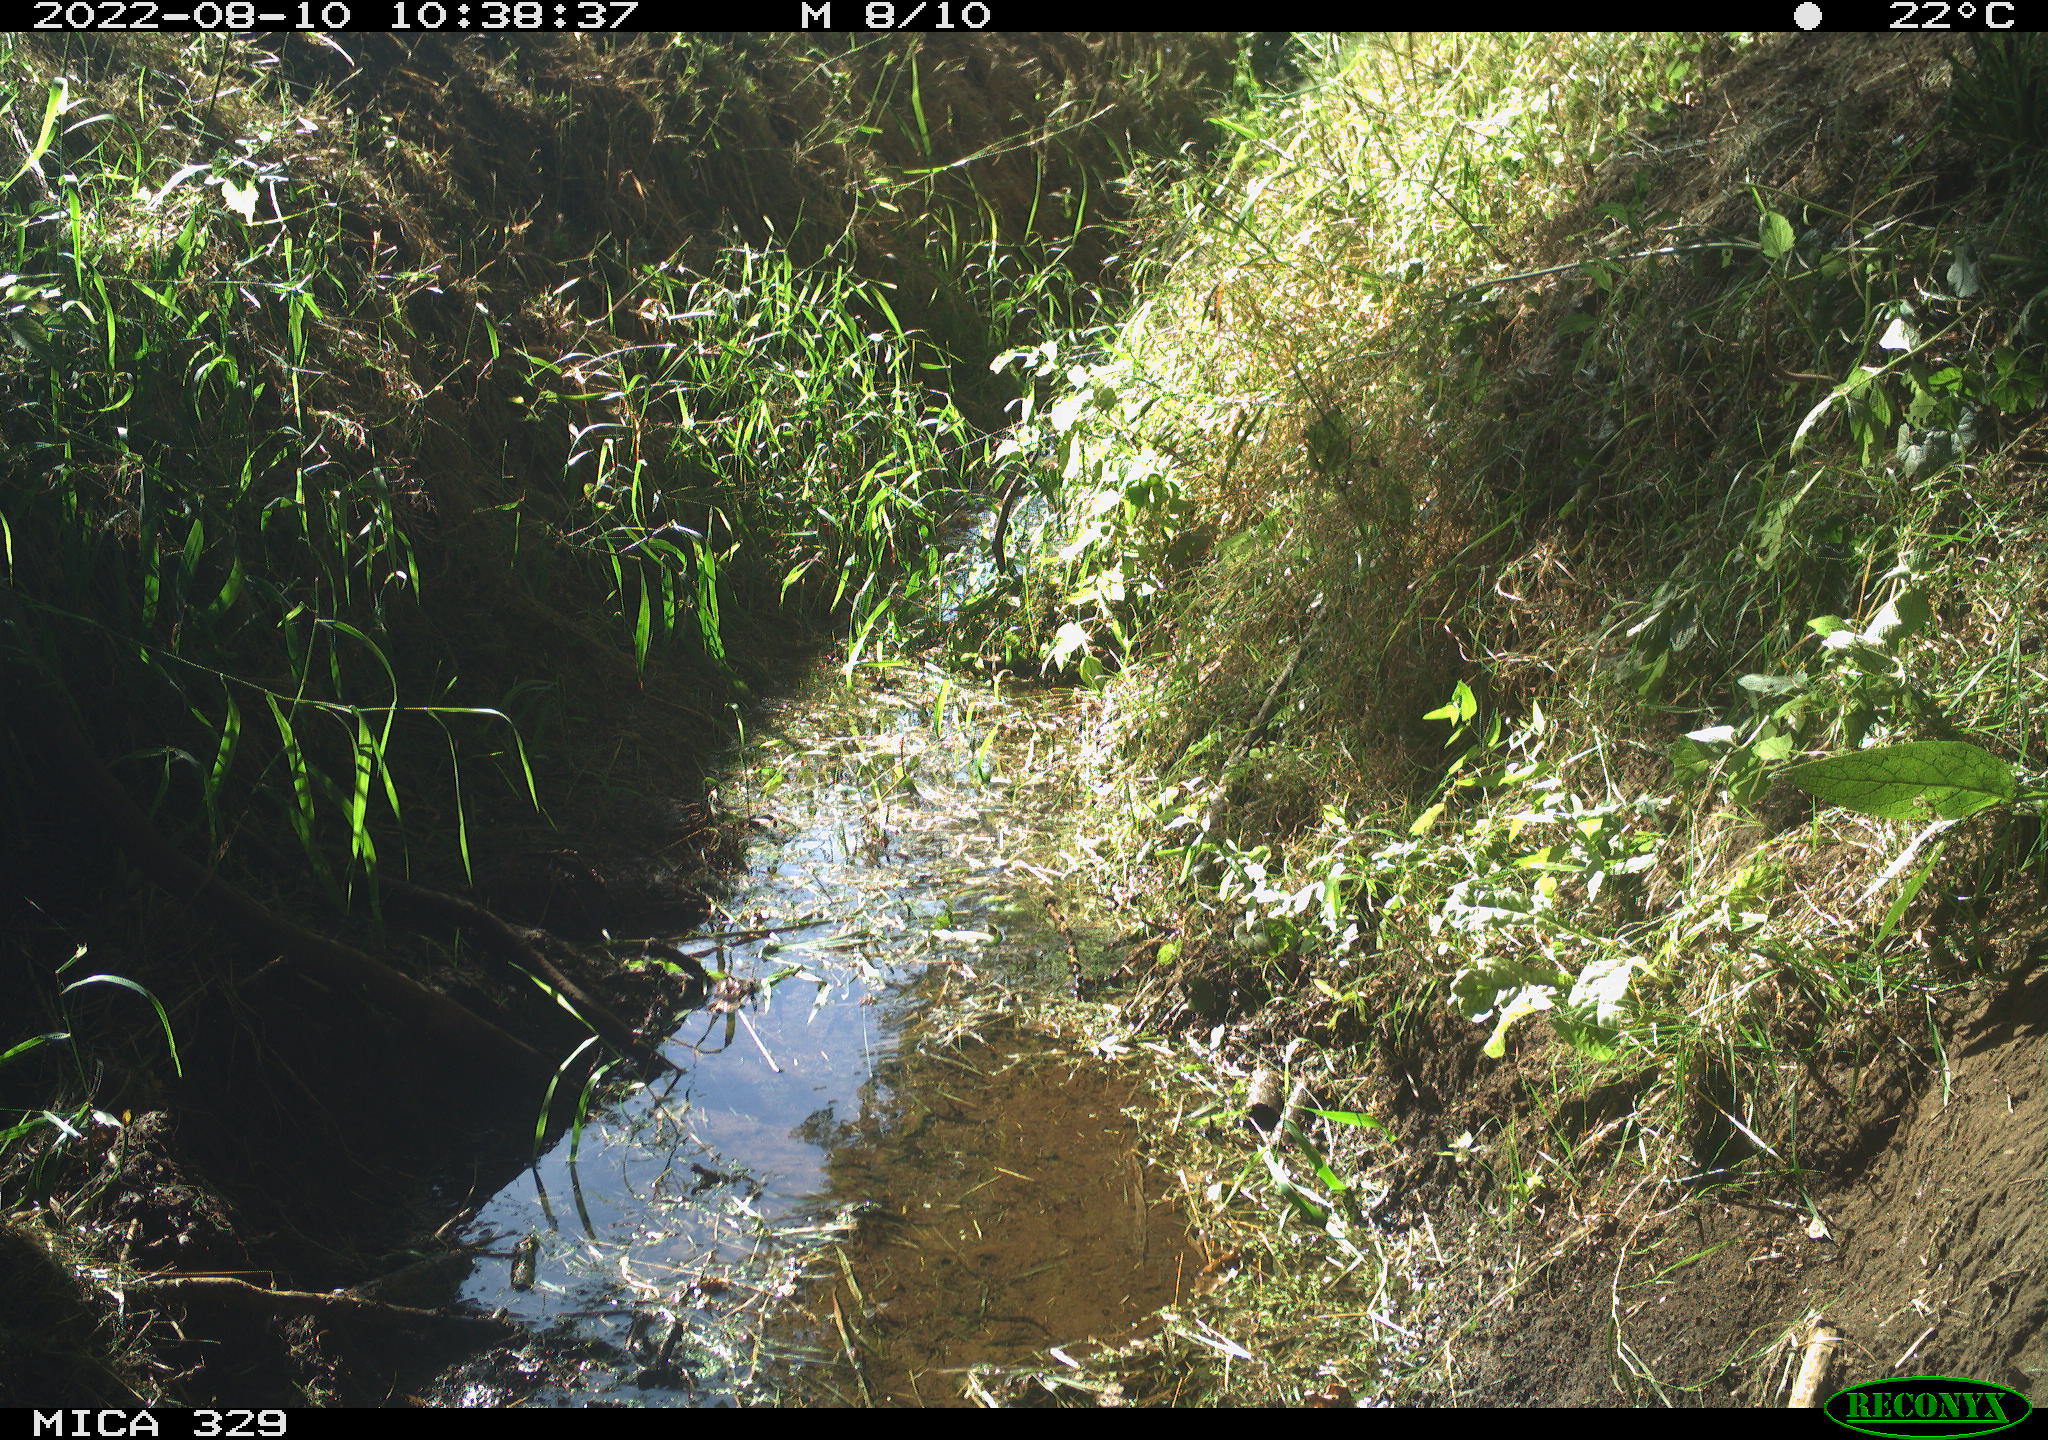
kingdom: Animalia
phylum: Chordata
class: Aves
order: Columbiformes
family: Columbidae
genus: Columba
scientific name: Columba palumbus
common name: Common wood pigeon
